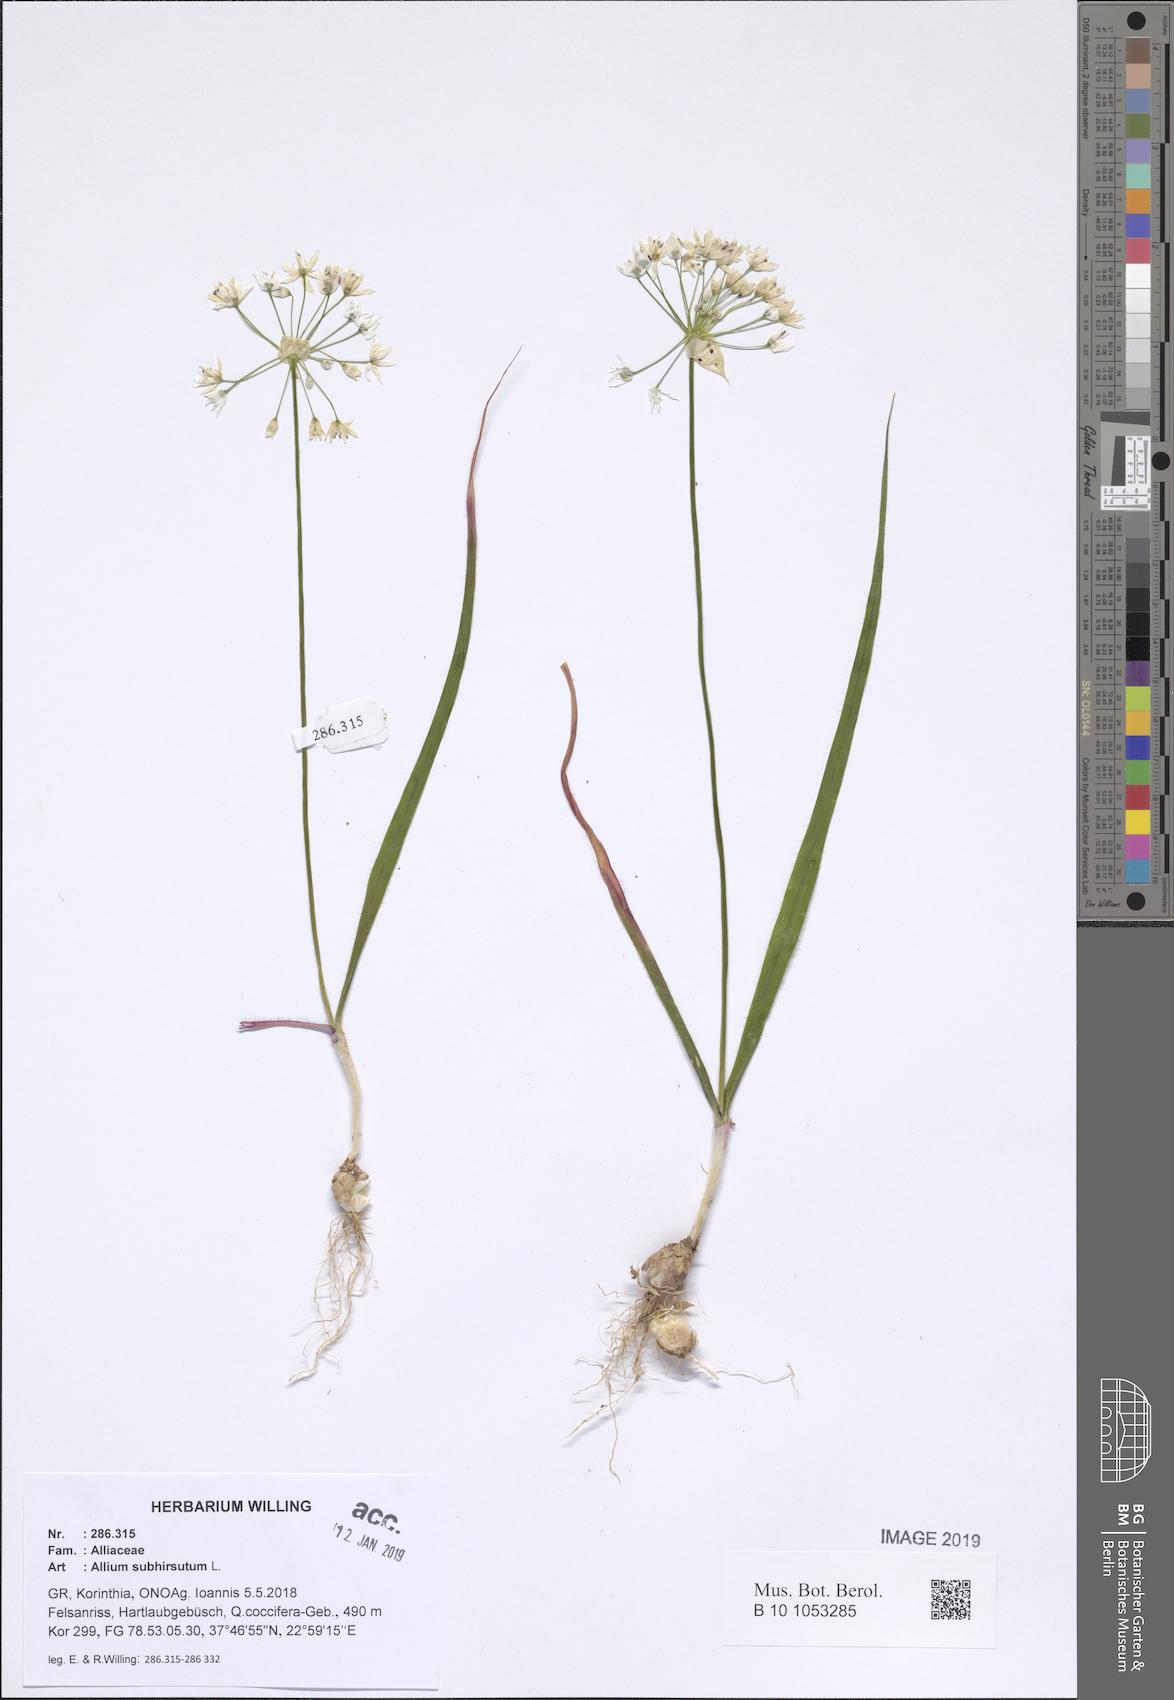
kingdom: Plantae
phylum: Tracheophyta
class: Liliopsida
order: Asparagales
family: Amaryllidaceae
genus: Allium
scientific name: Allium subhirsutum
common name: Hairy garlic
